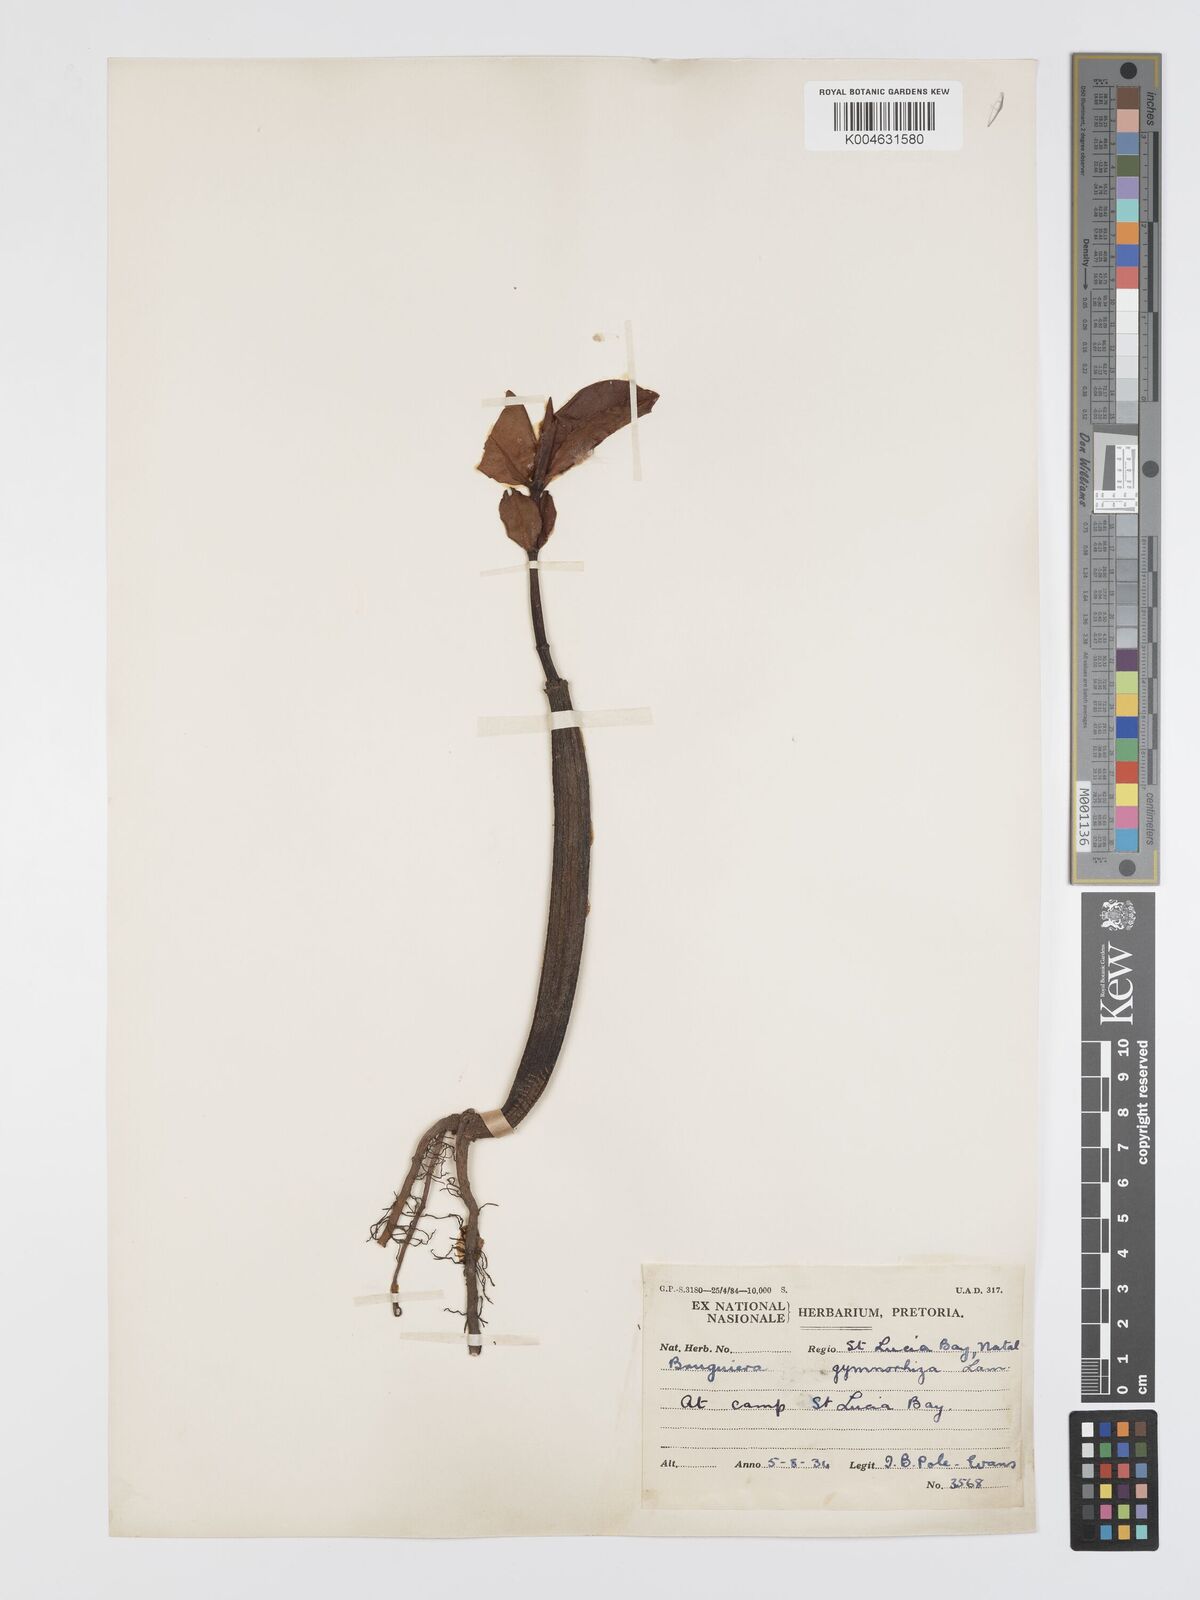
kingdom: Plantae
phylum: Tracheophyta
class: Magnoliopsida
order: Malpighiales
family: Rhizophoraceae
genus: Bruguiera
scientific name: Bruguiera
